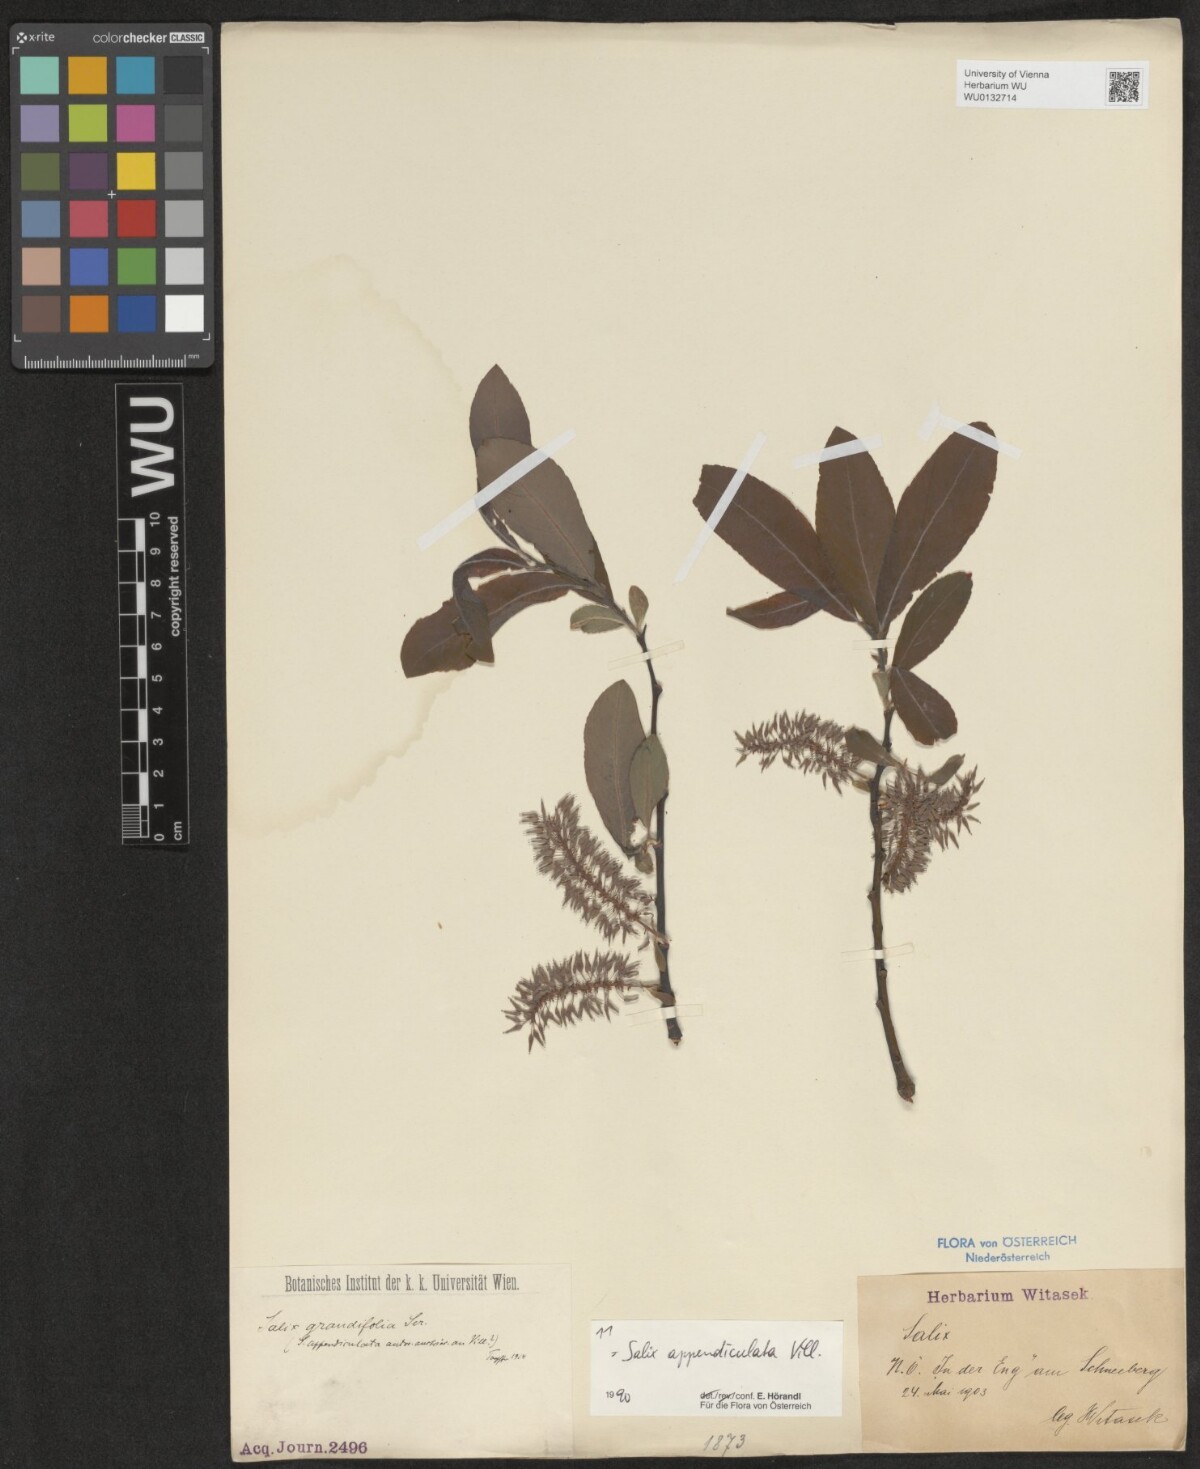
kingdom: Plantae
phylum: Tracheophyta
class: Magnoliopsida
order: Malpighiales
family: Salicaceae
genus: Salix
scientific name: Salix appendiculata
